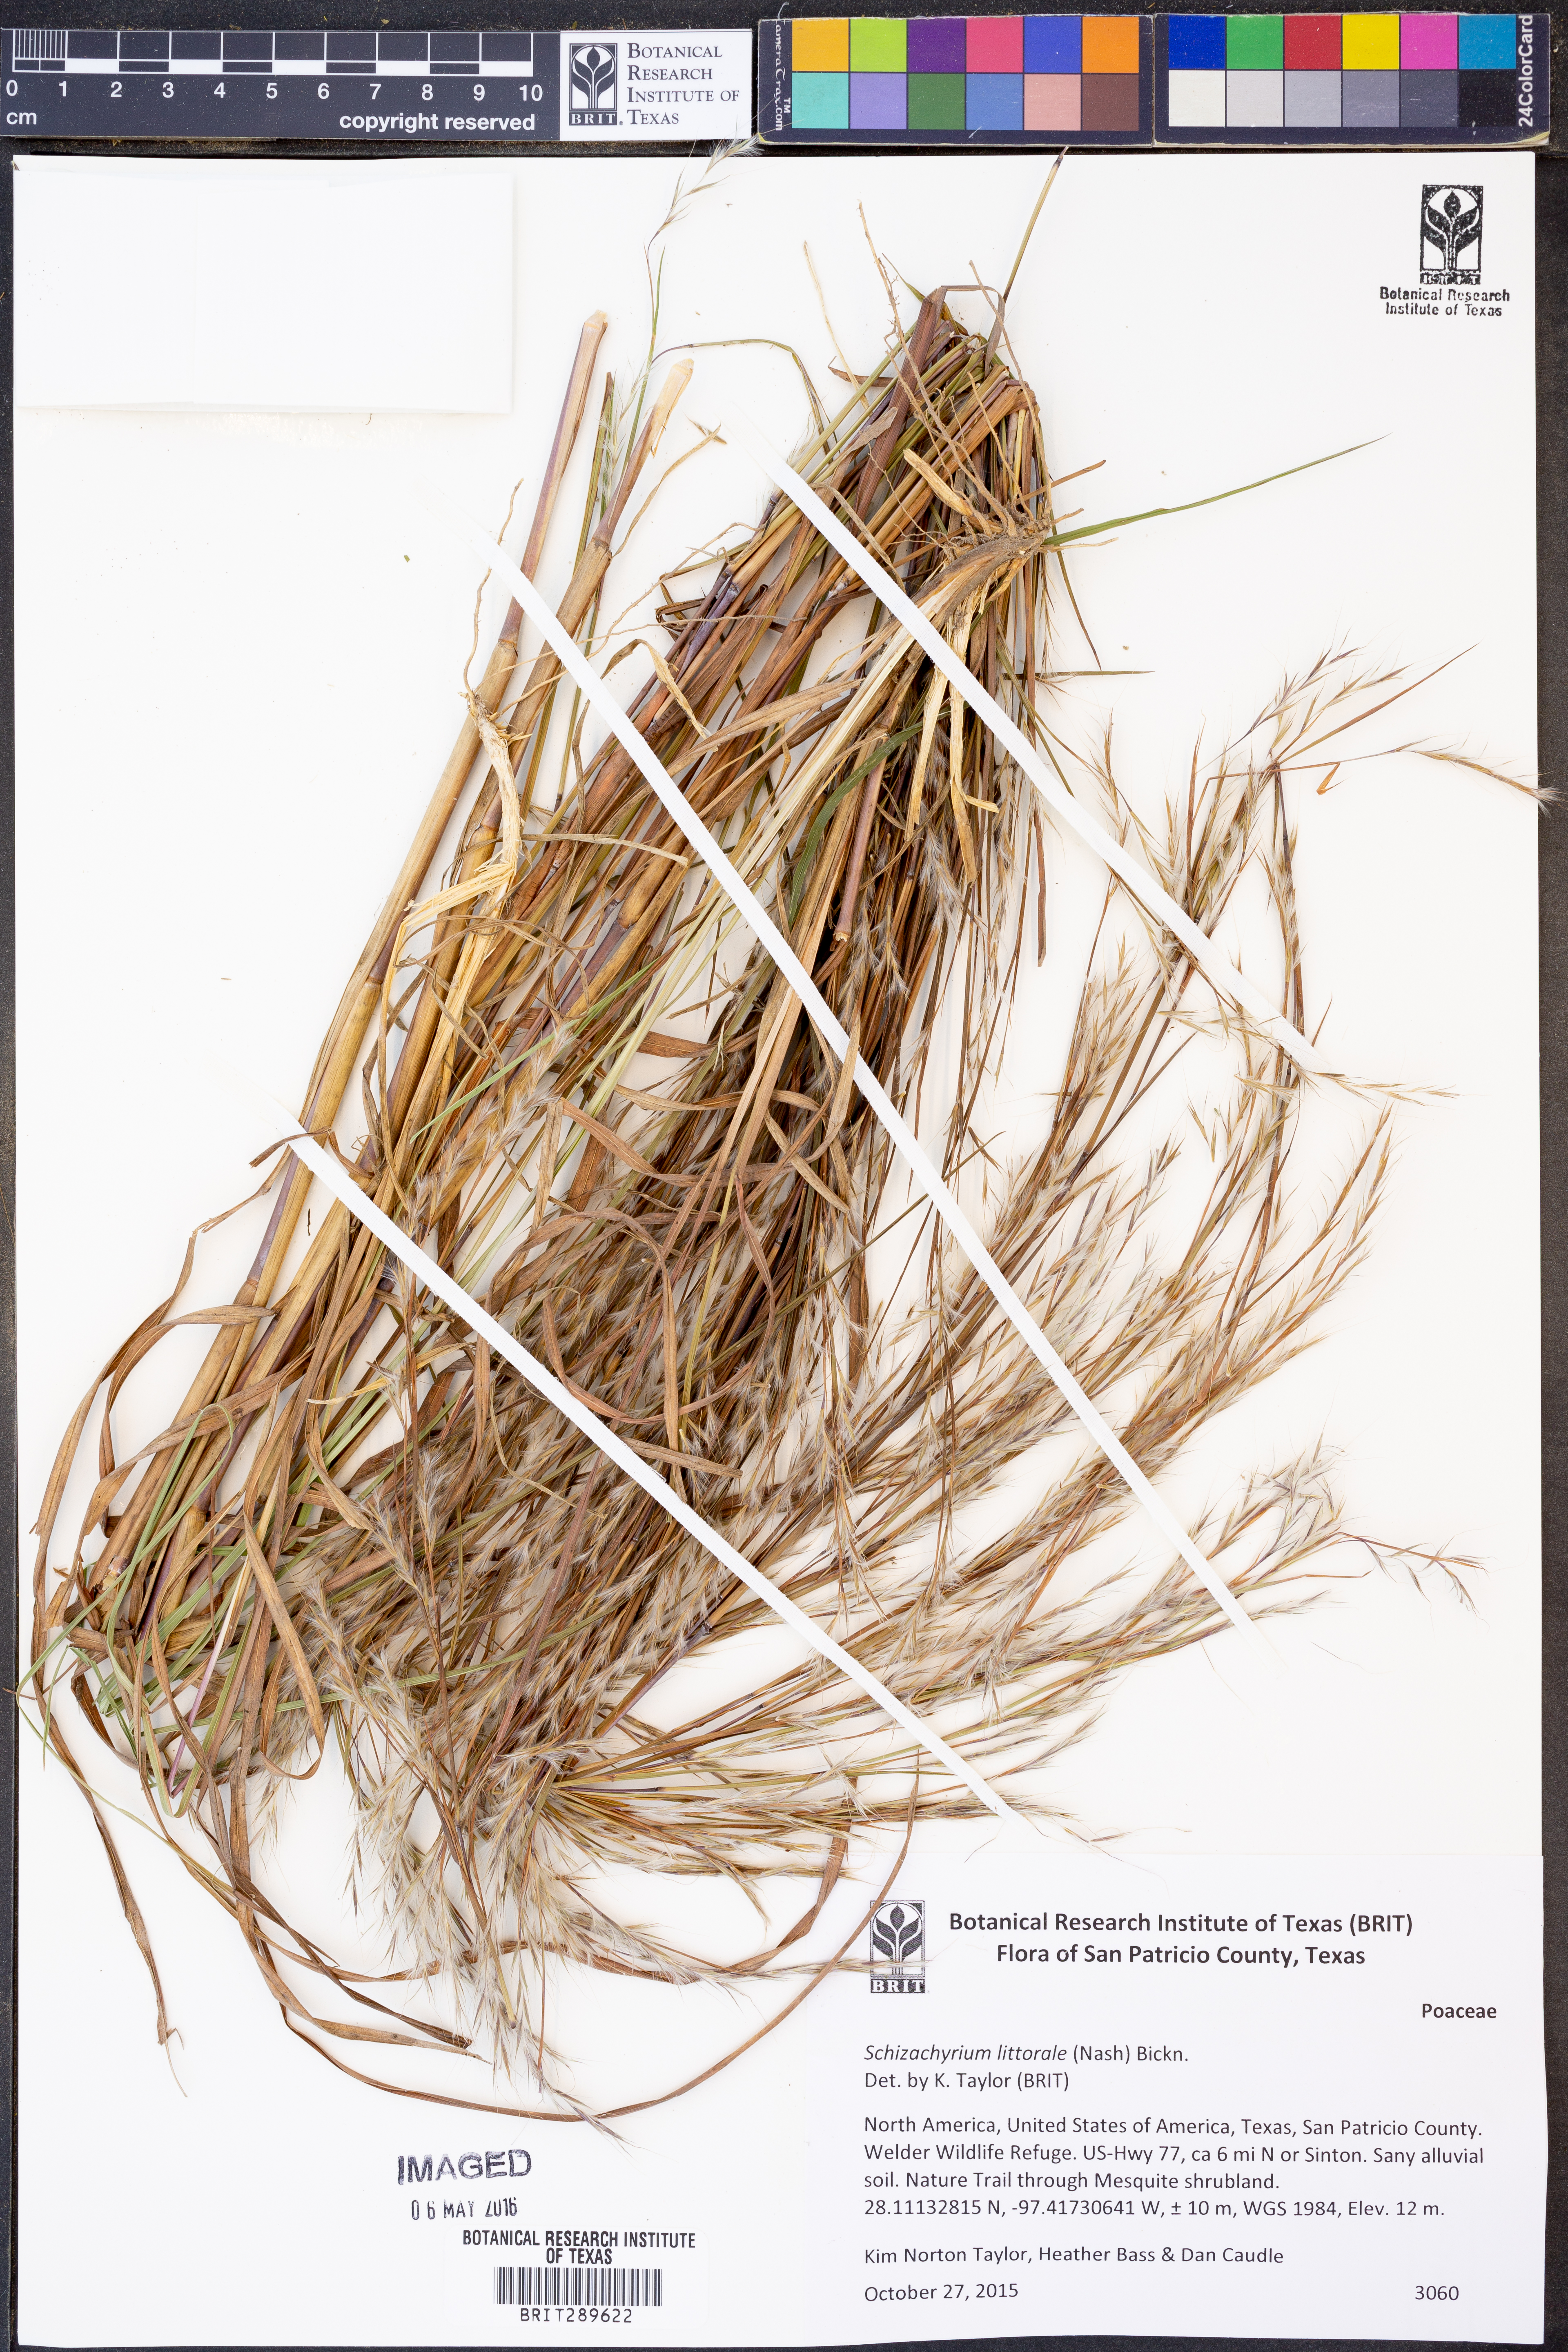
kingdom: Plantae
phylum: Tracheophyta
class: Liliopsida
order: Poales
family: Poaceae
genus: Schizachyrium
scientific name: Schizachyrium scoparium
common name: Little bluestem
